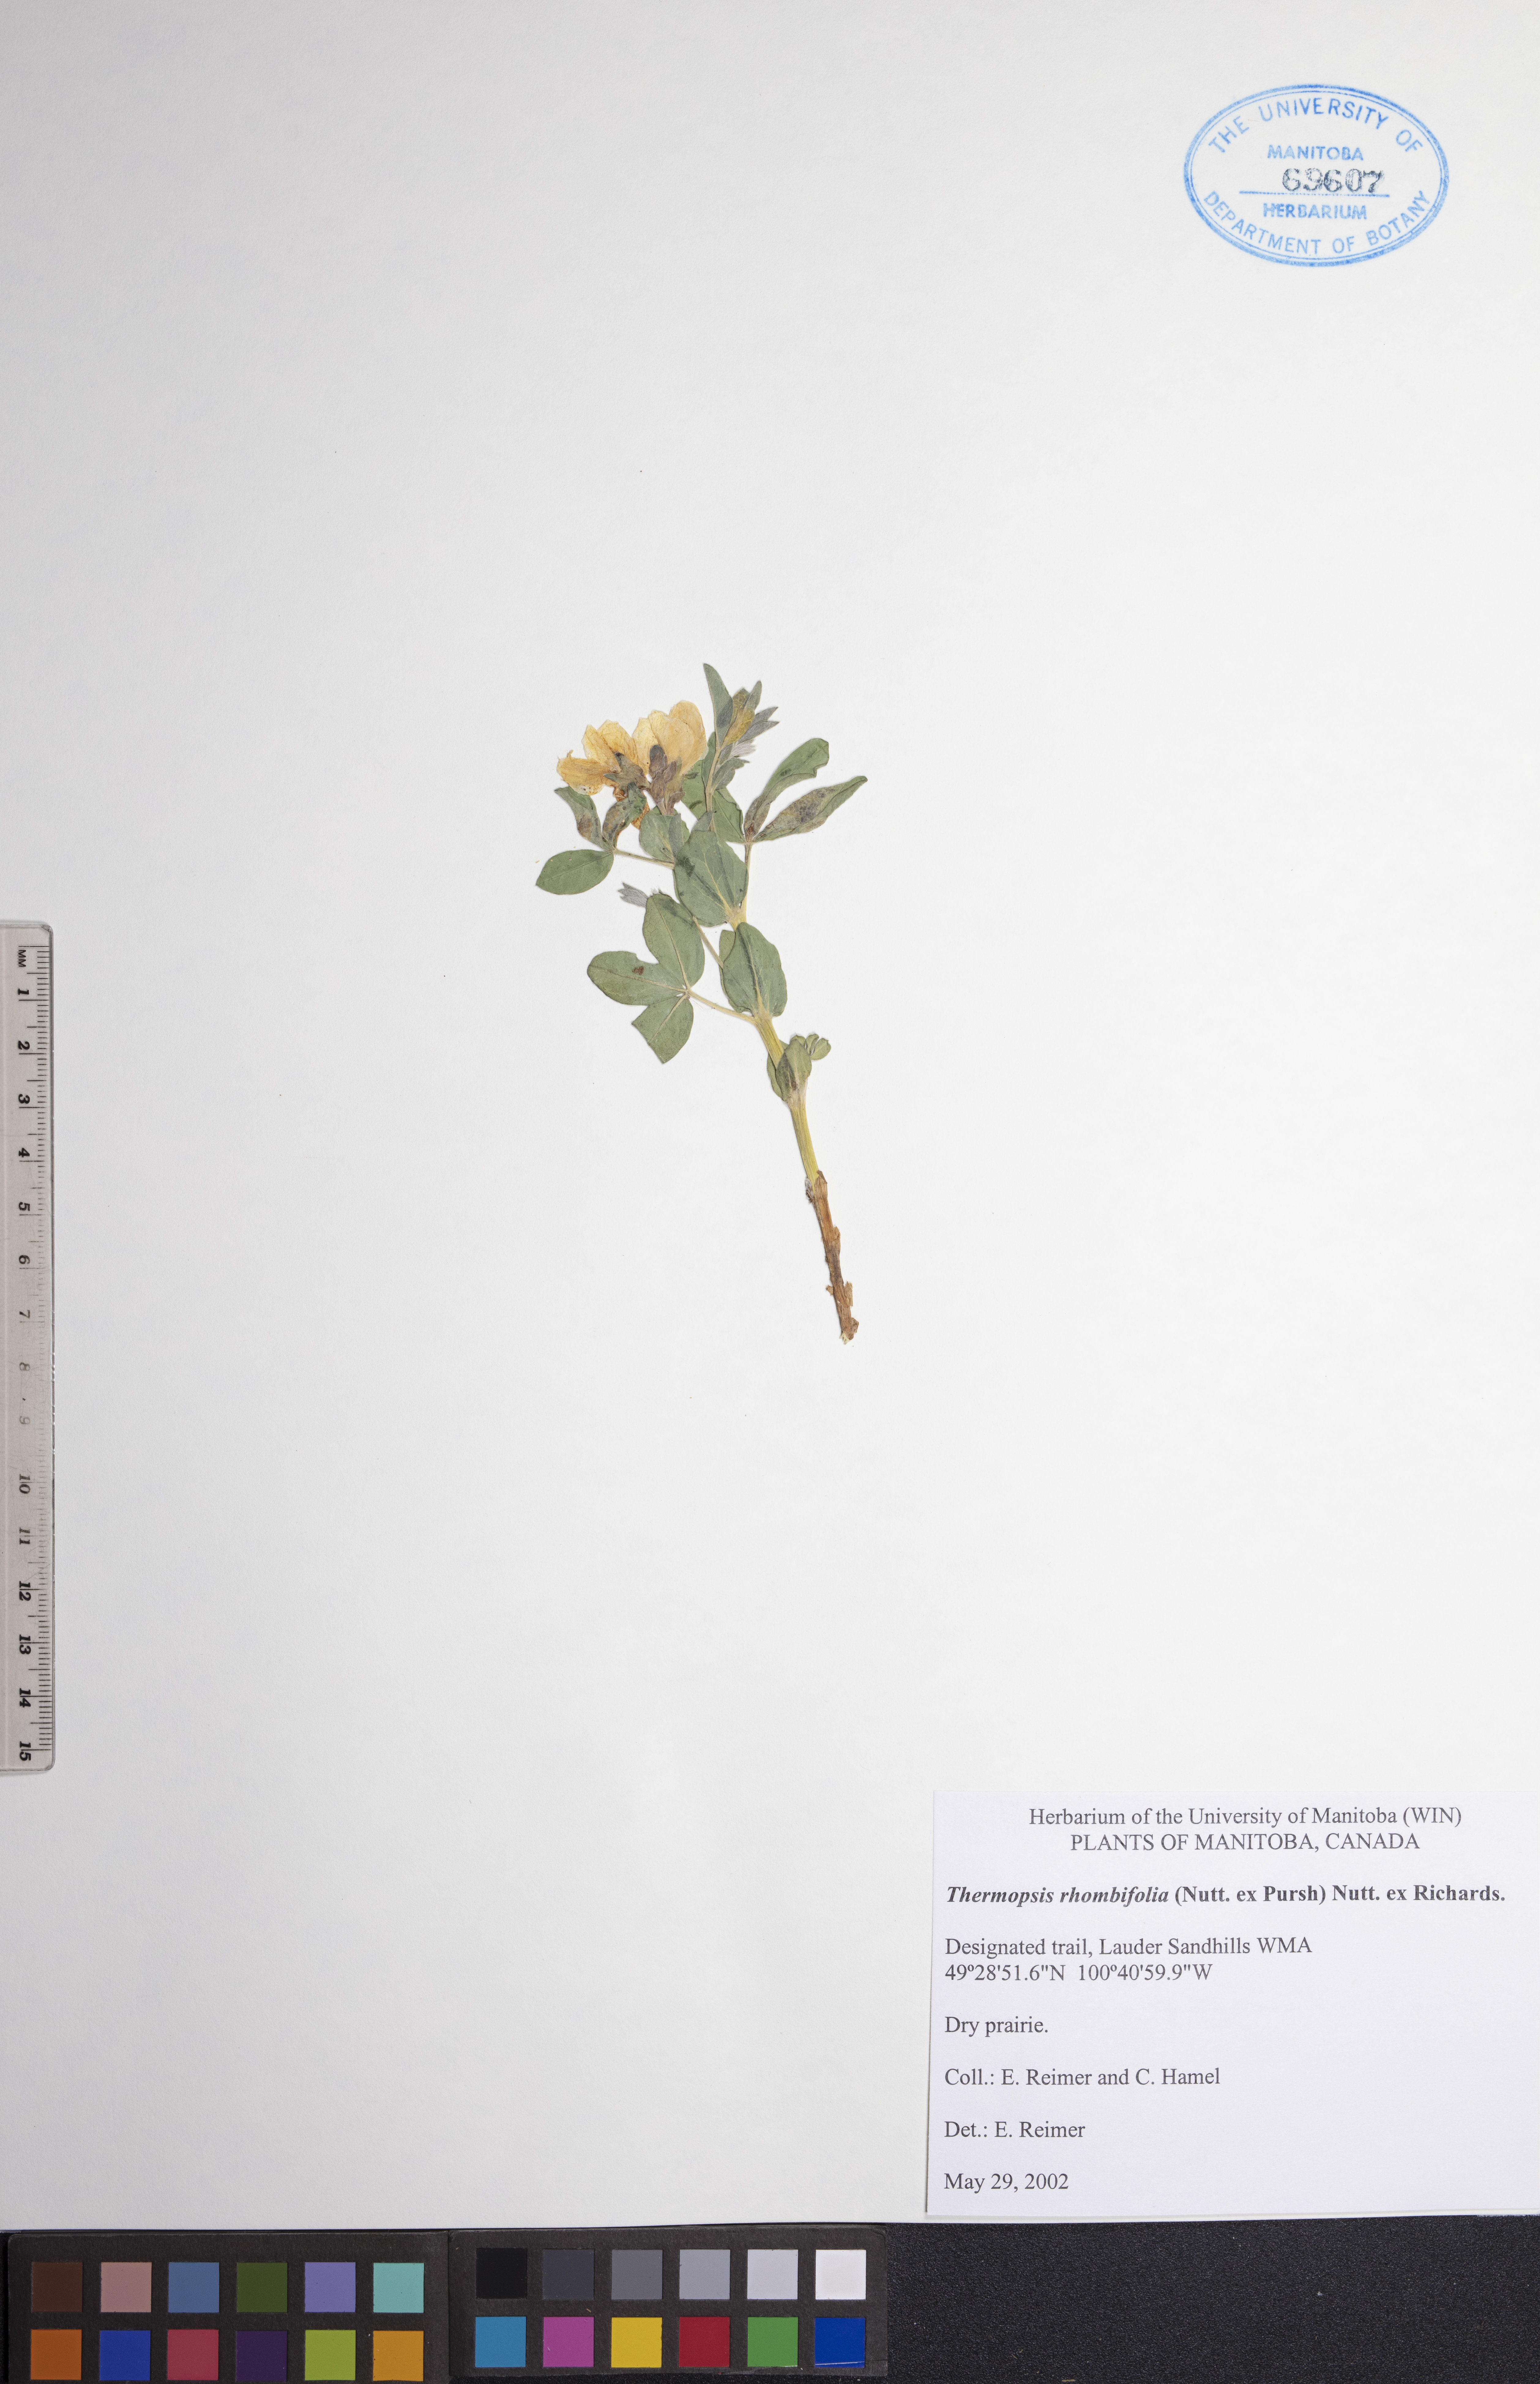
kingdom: Plantae
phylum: Tracheophyta
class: Magnoliopsida
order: Fabales
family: Fabaceae
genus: Thermopsis
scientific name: Thermopsis rhombifolia
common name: Circle-pod-pea
